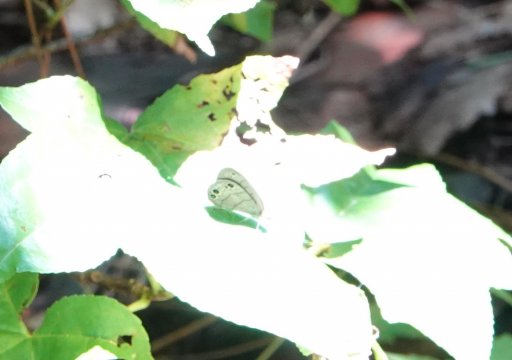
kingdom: Animalia
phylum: Arthropoda
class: Insecta
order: Lepidoptera
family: Nymphalidae
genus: Hermeuptychia
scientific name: Hermeuptychia hermes
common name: Carolina Satyr
